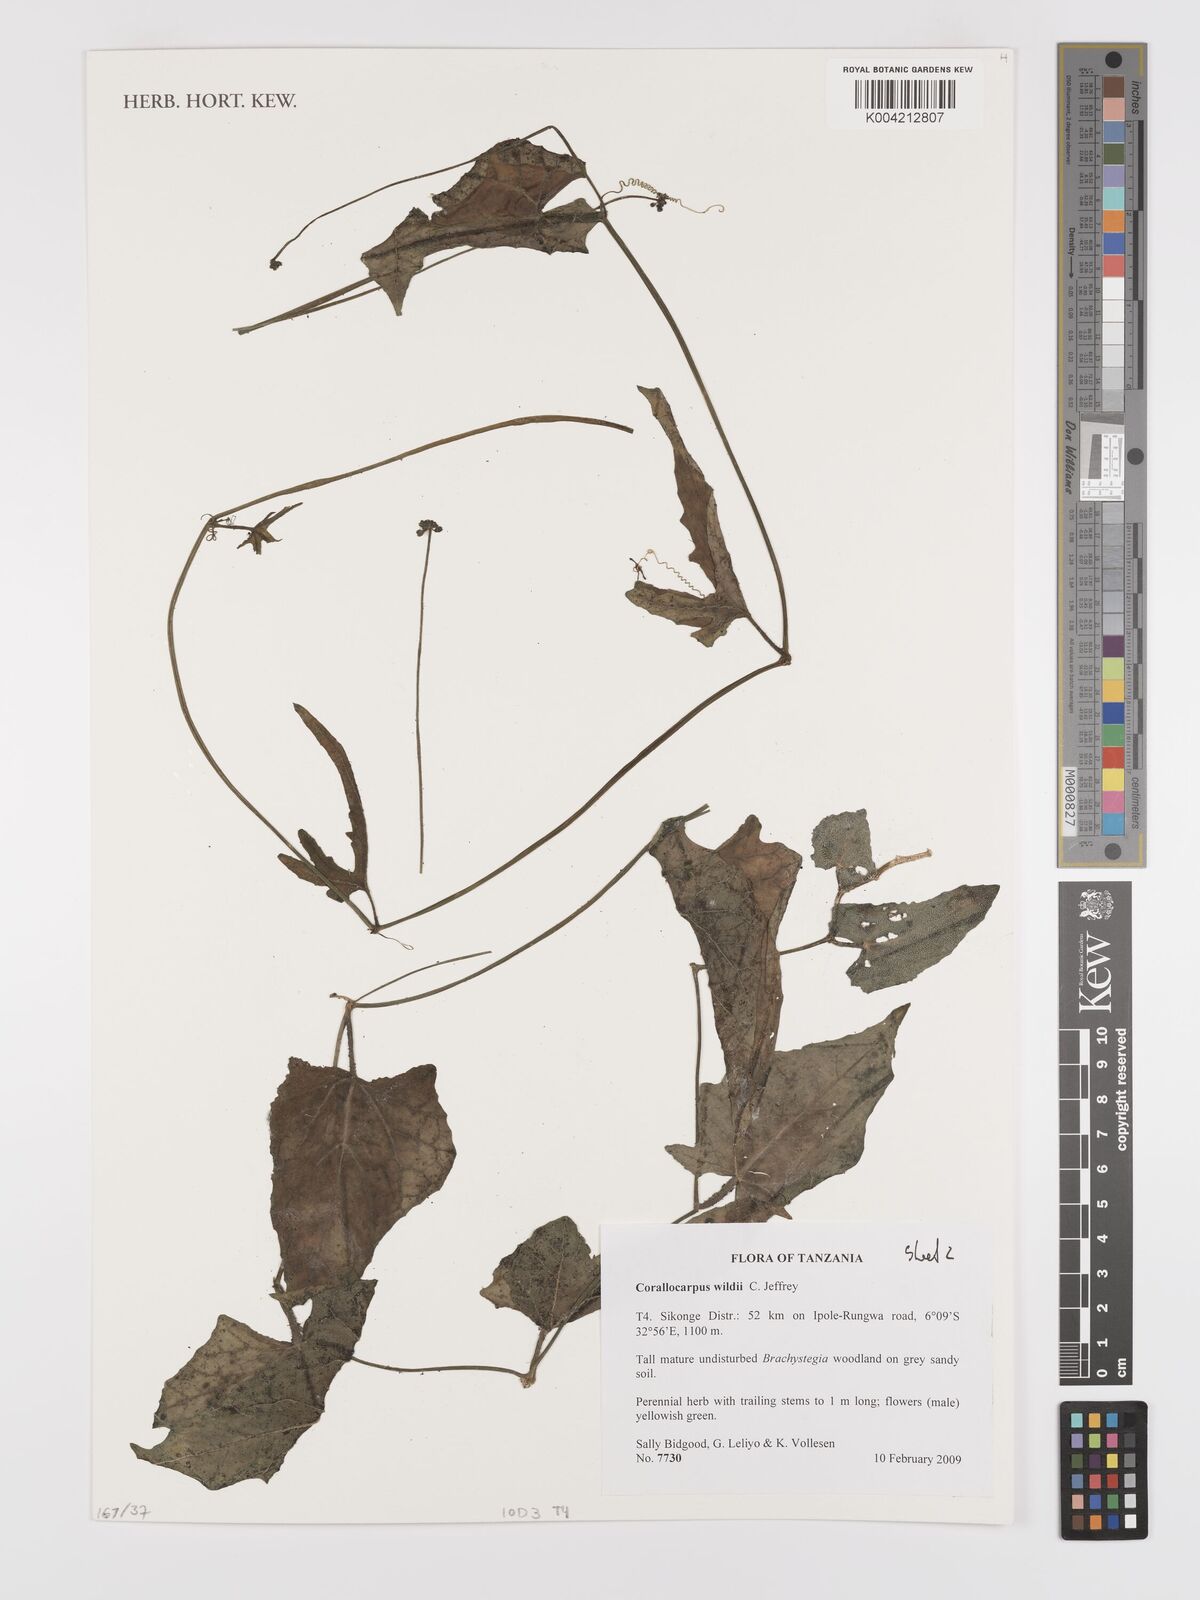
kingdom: Plantae
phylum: Tracheophyta
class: Magnoliopsida
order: Cucurbitales
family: Cucurbitaceae
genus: Corallocarpus
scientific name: Corallocarpus tenuissimus
